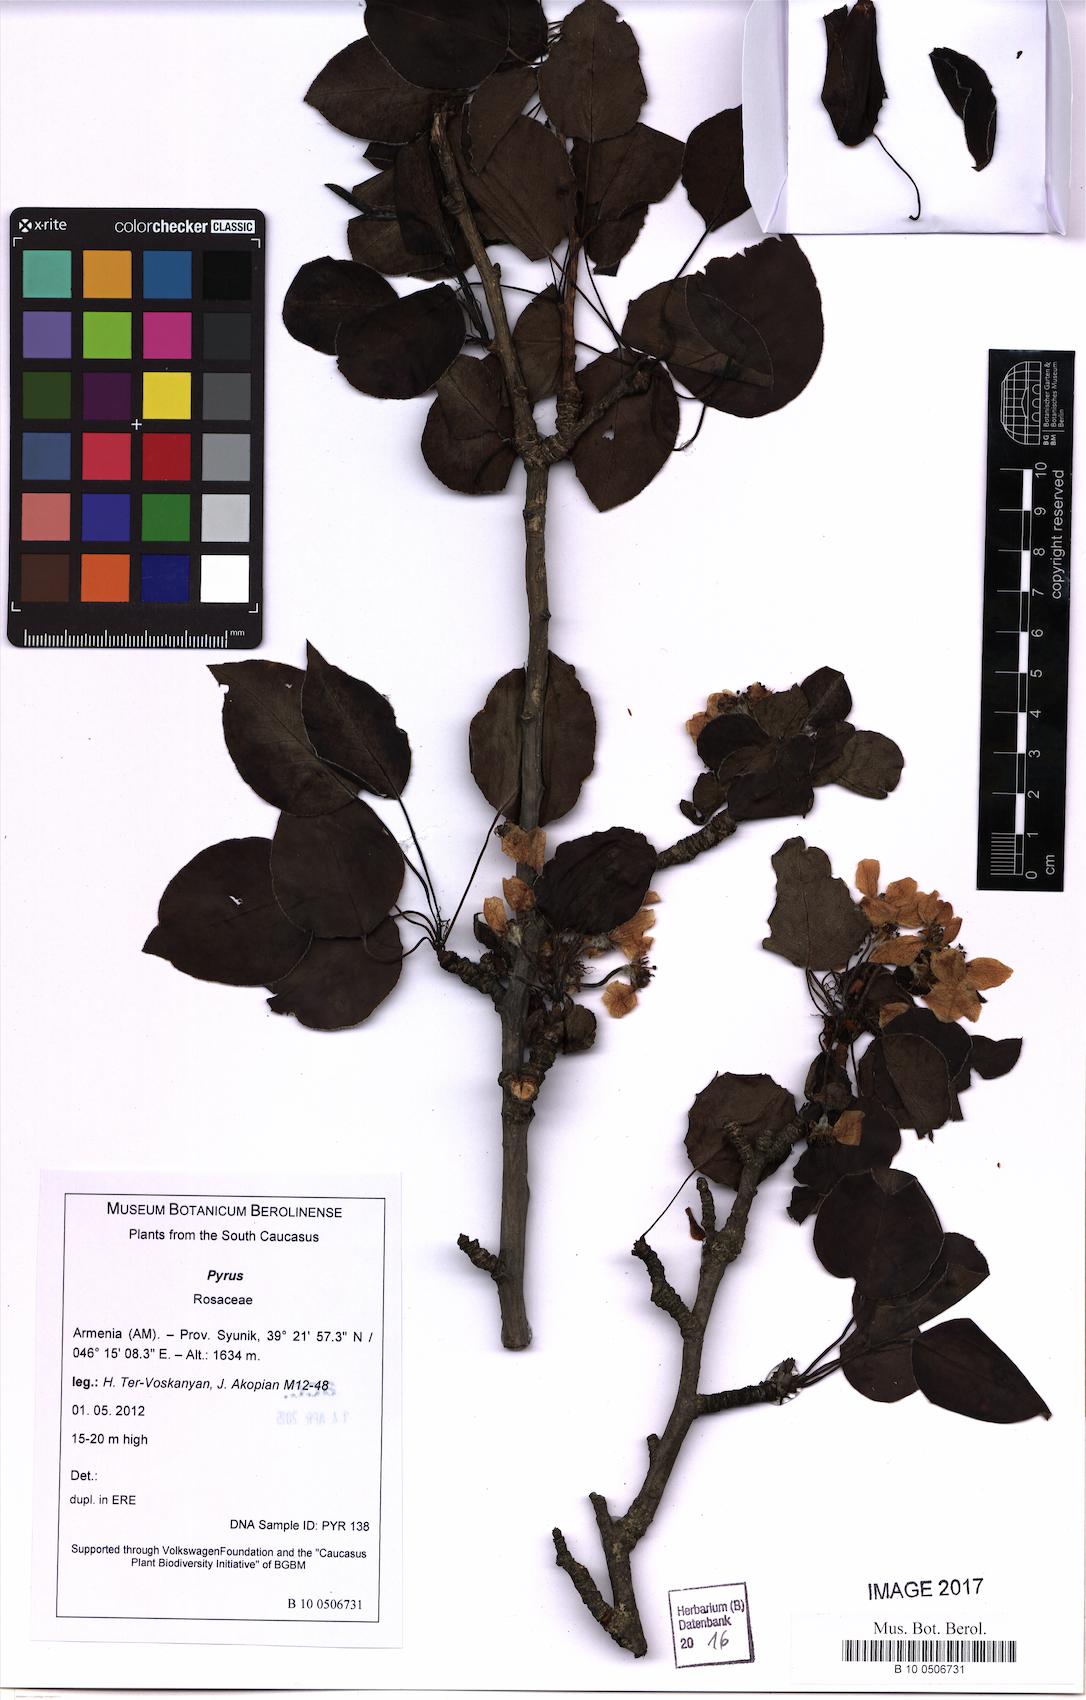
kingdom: Plantae
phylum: Tracheophyta
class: Magnoliopsida
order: Rosales
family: Rosaceae
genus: Pyrus
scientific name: Pyrus
